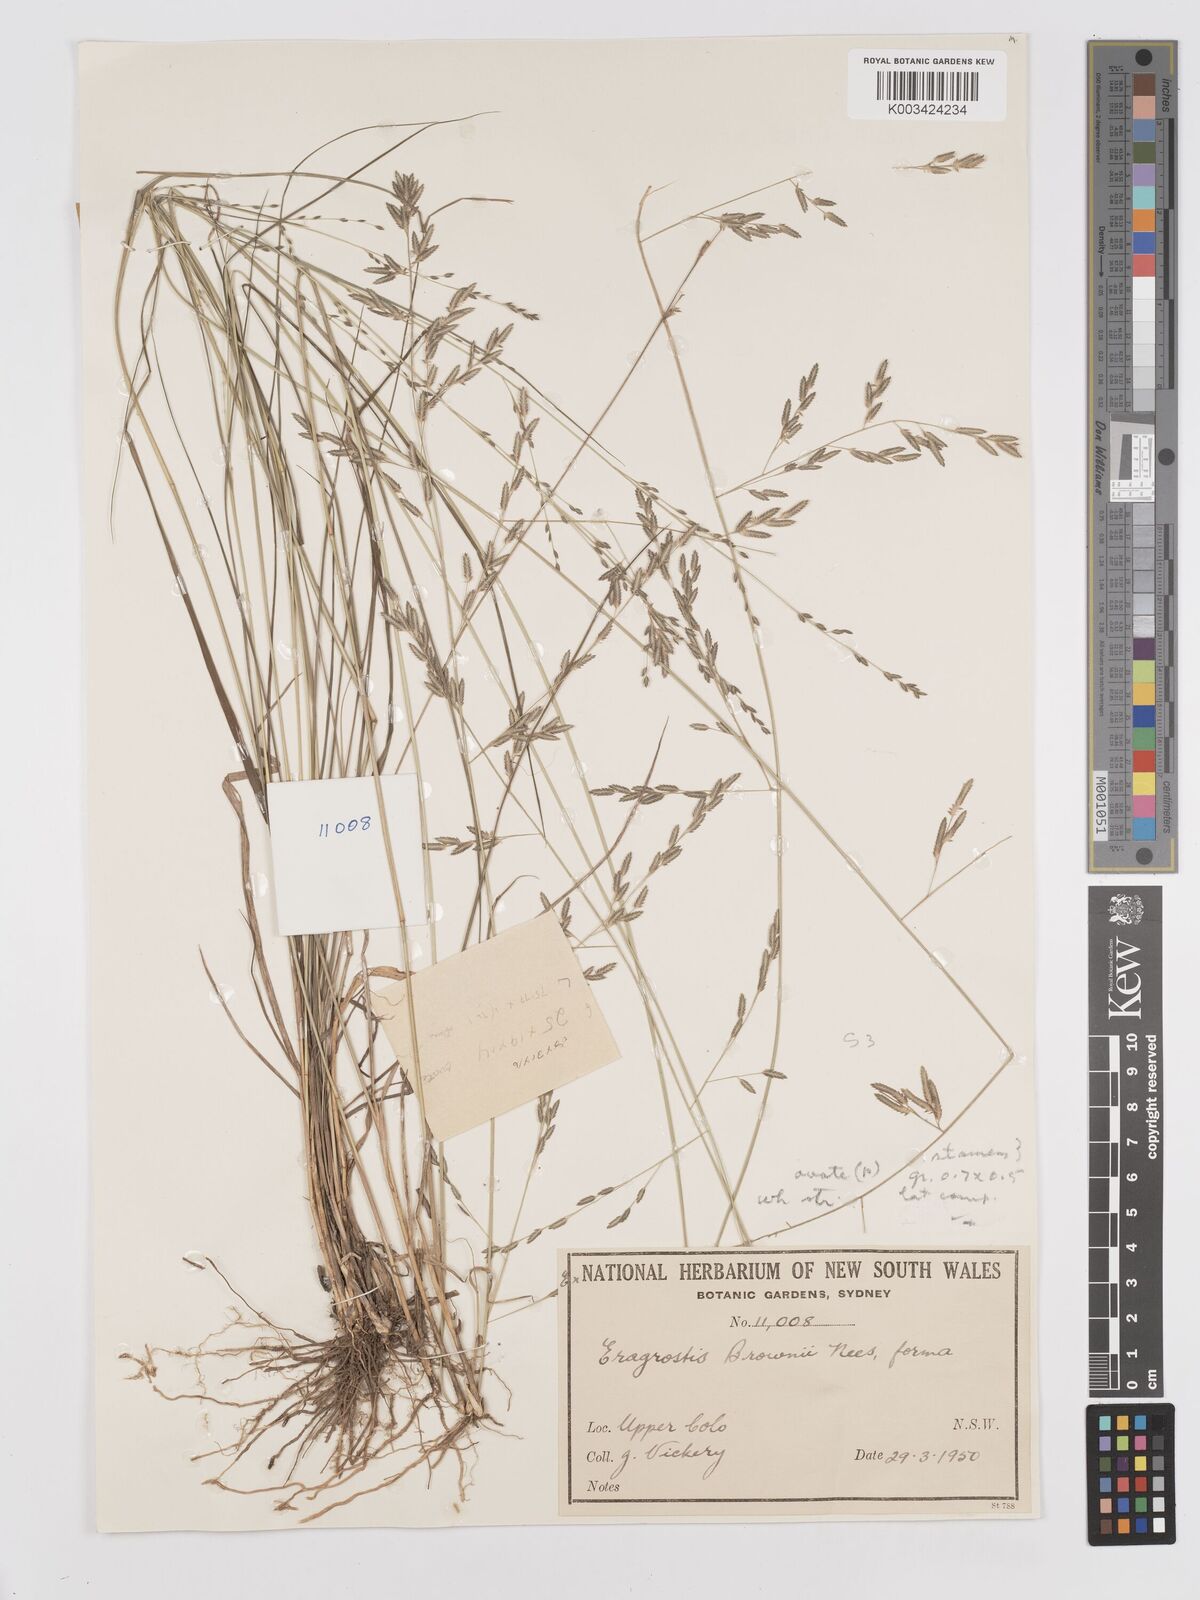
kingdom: Plantae
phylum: Tracheophyta
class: Liliopsida
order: Poales
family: Poaceae
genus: Eragrostis
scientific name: Eragrostis brownii
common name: Lovegrass
